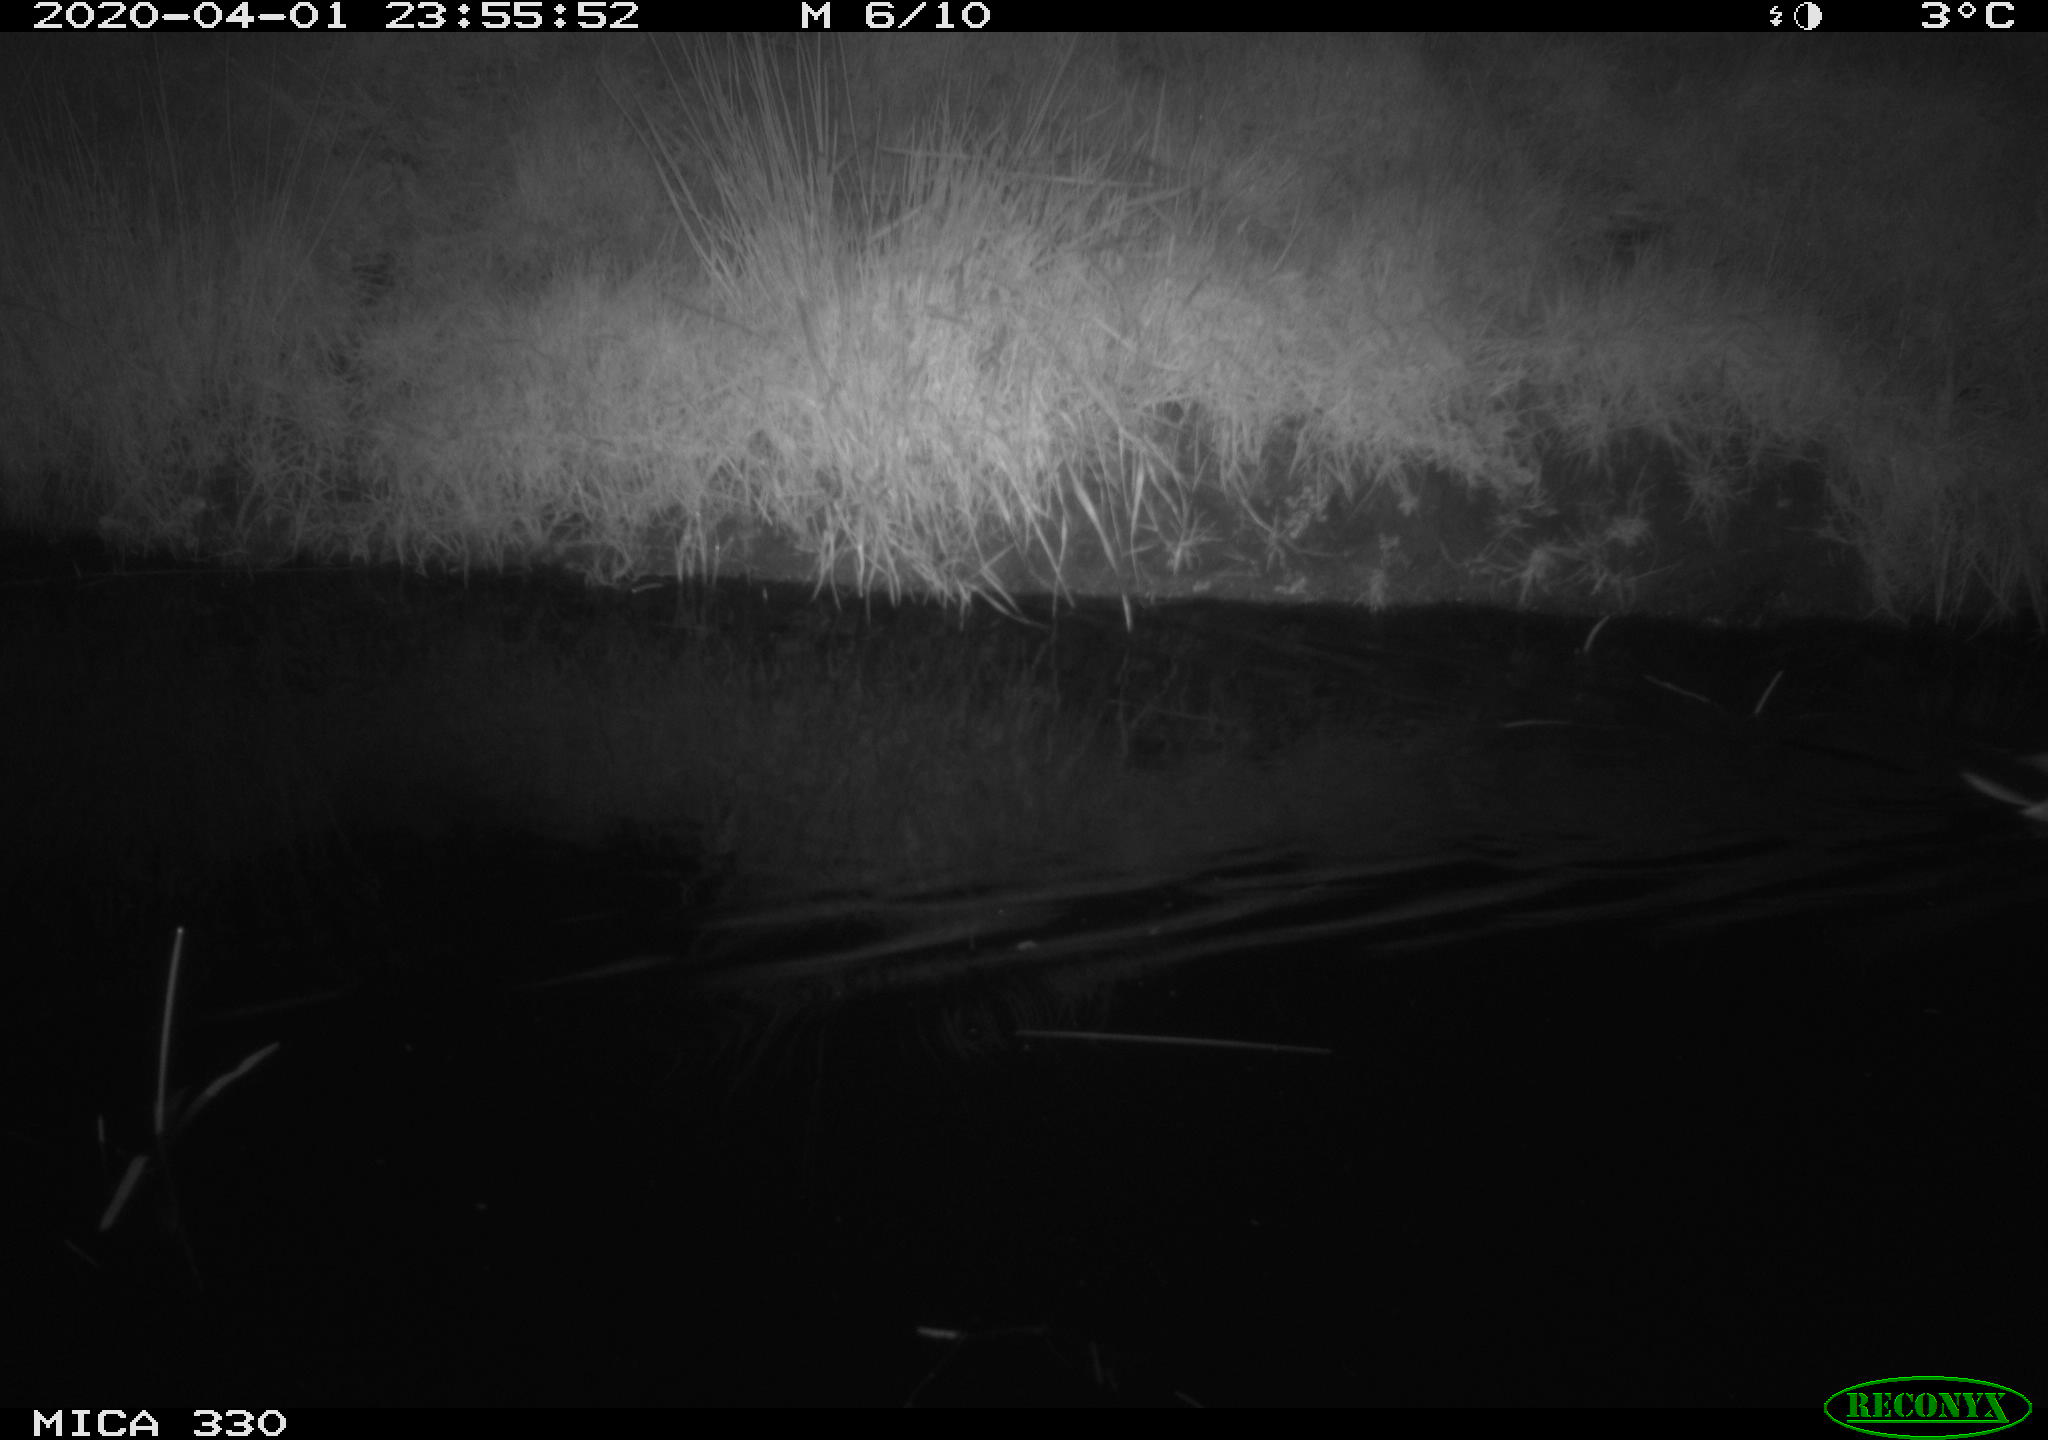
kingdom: Animalia
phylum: Chordata
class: Aves
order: Anseriformes
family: Anatidae
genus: Anas
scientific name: Anas platyrhynchos
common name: Mallard
